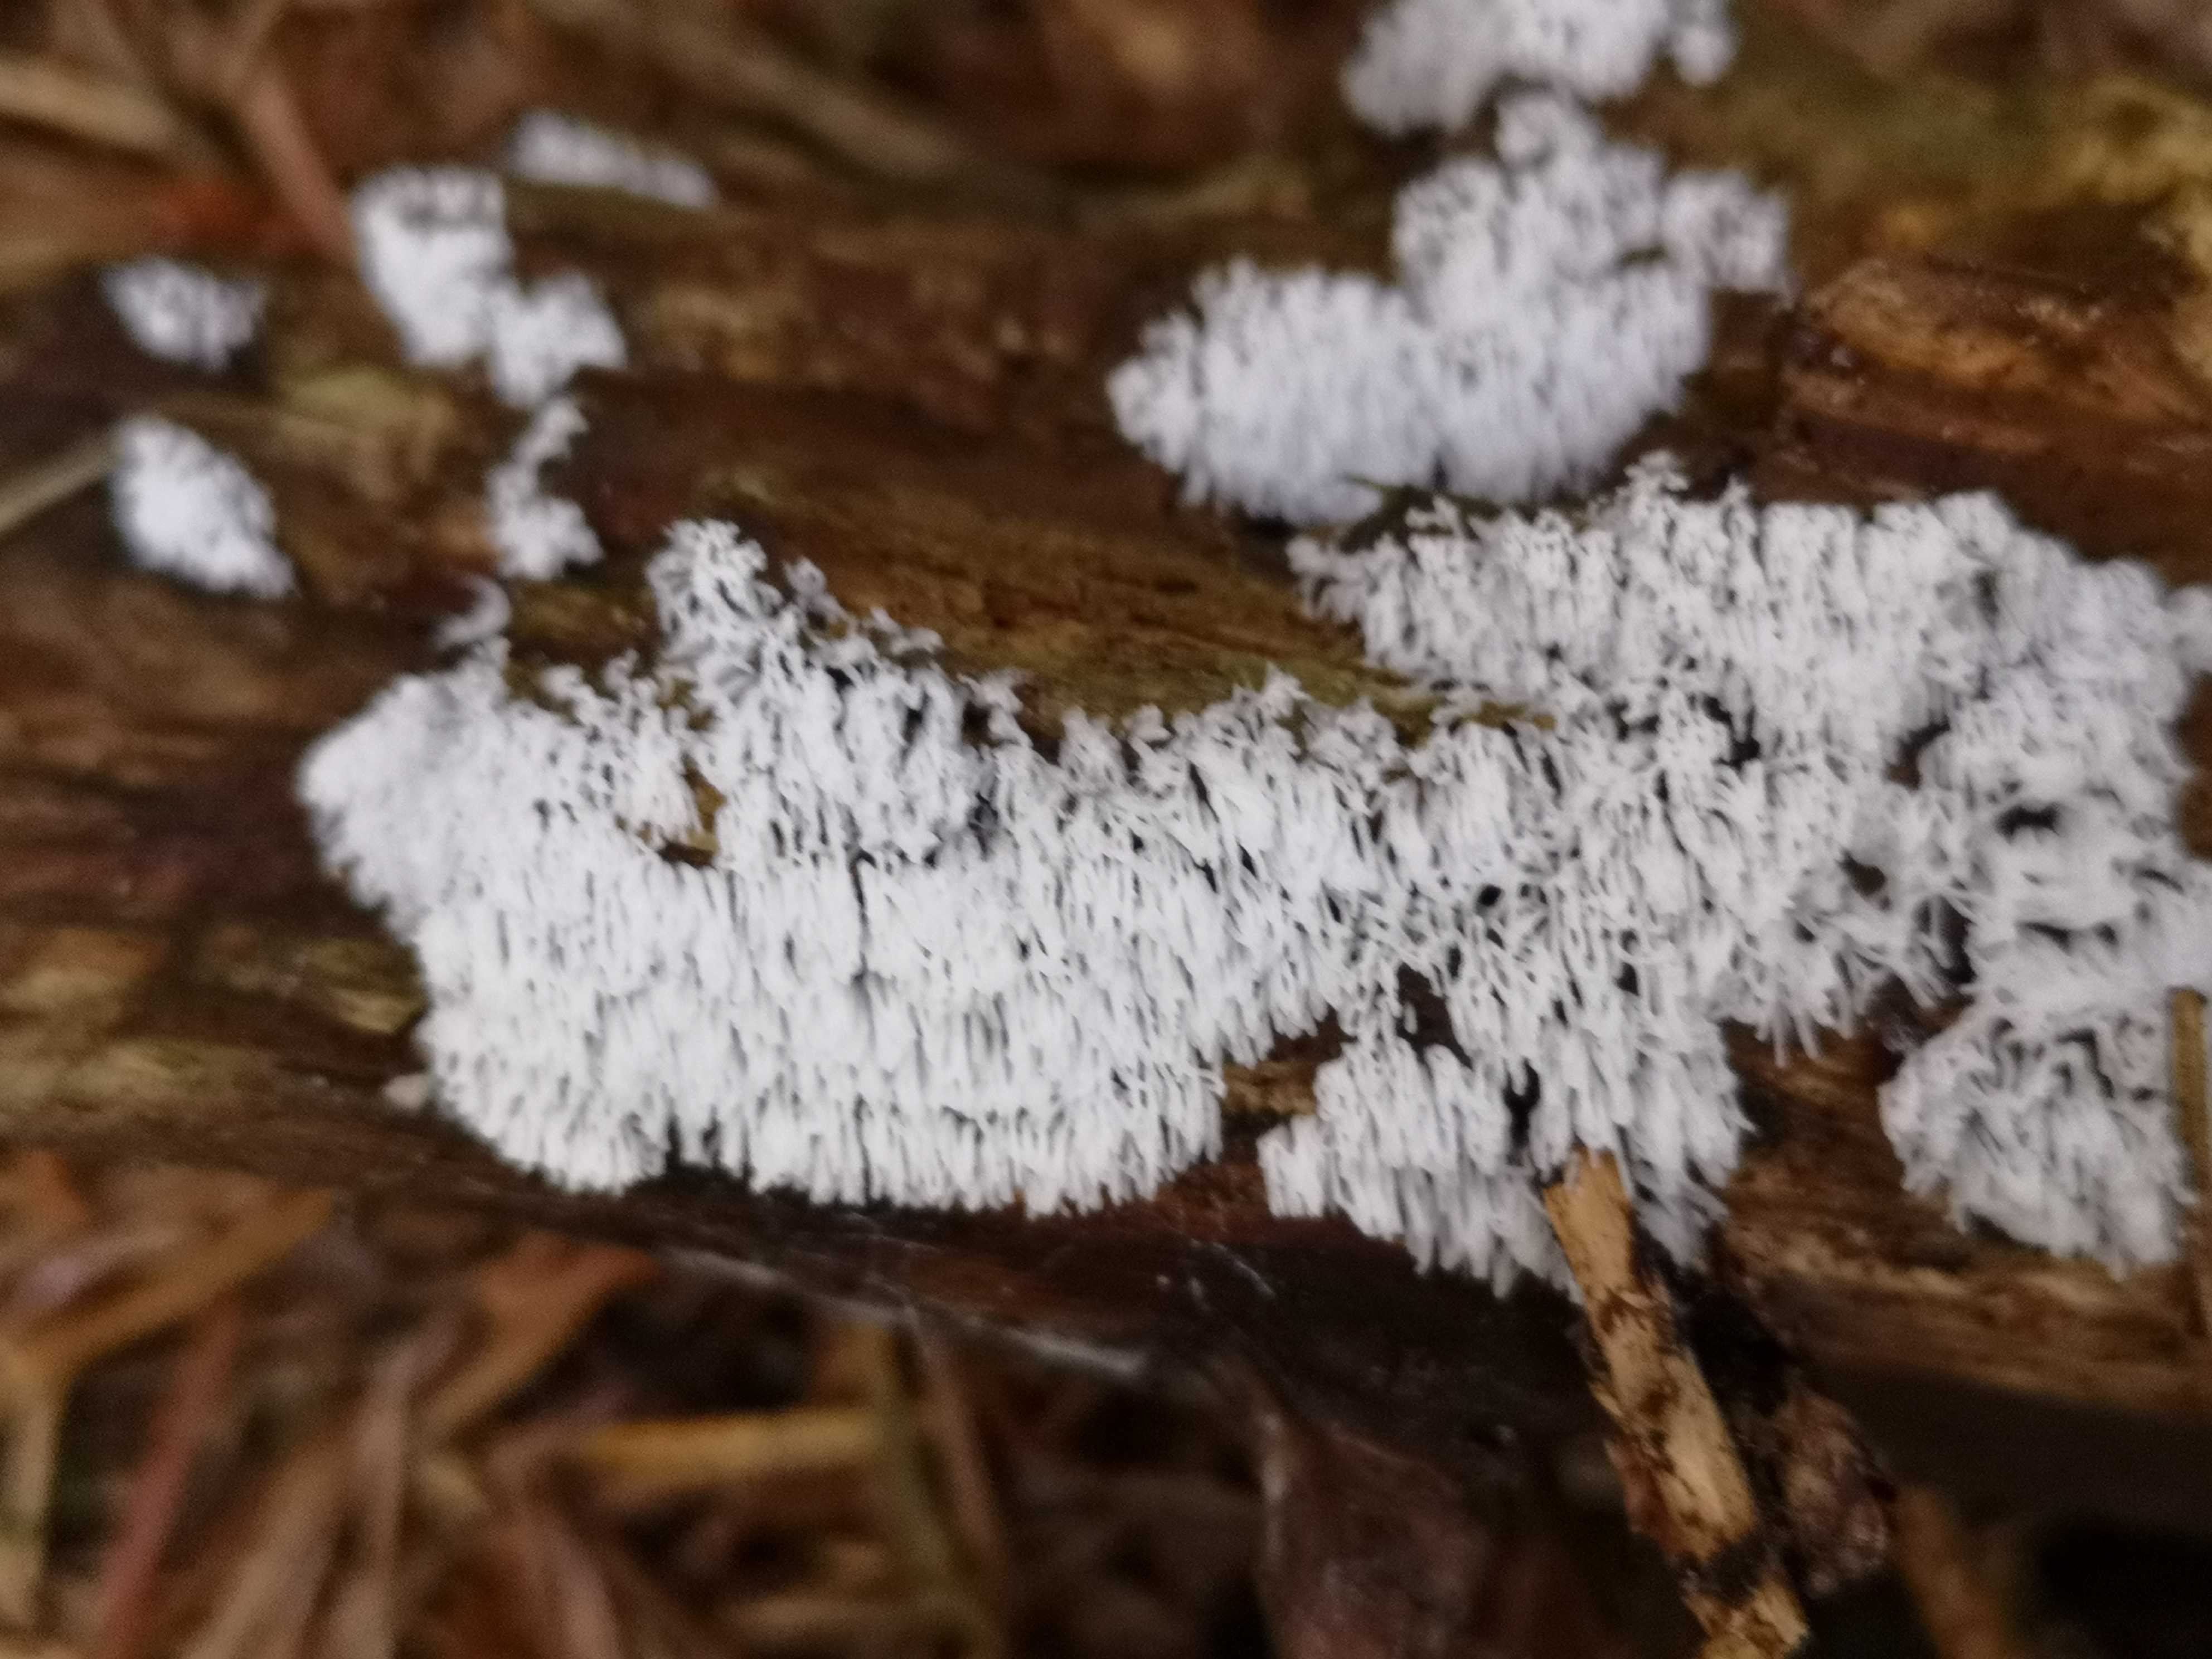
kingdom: Protozoa
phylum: Mycetozoa
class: Protosteliomycetes
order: Ceratiomyxales
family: Ceratiomyxaceae
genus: Ceratiomyxa
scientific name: Ceratiomyxa fruticulosa
